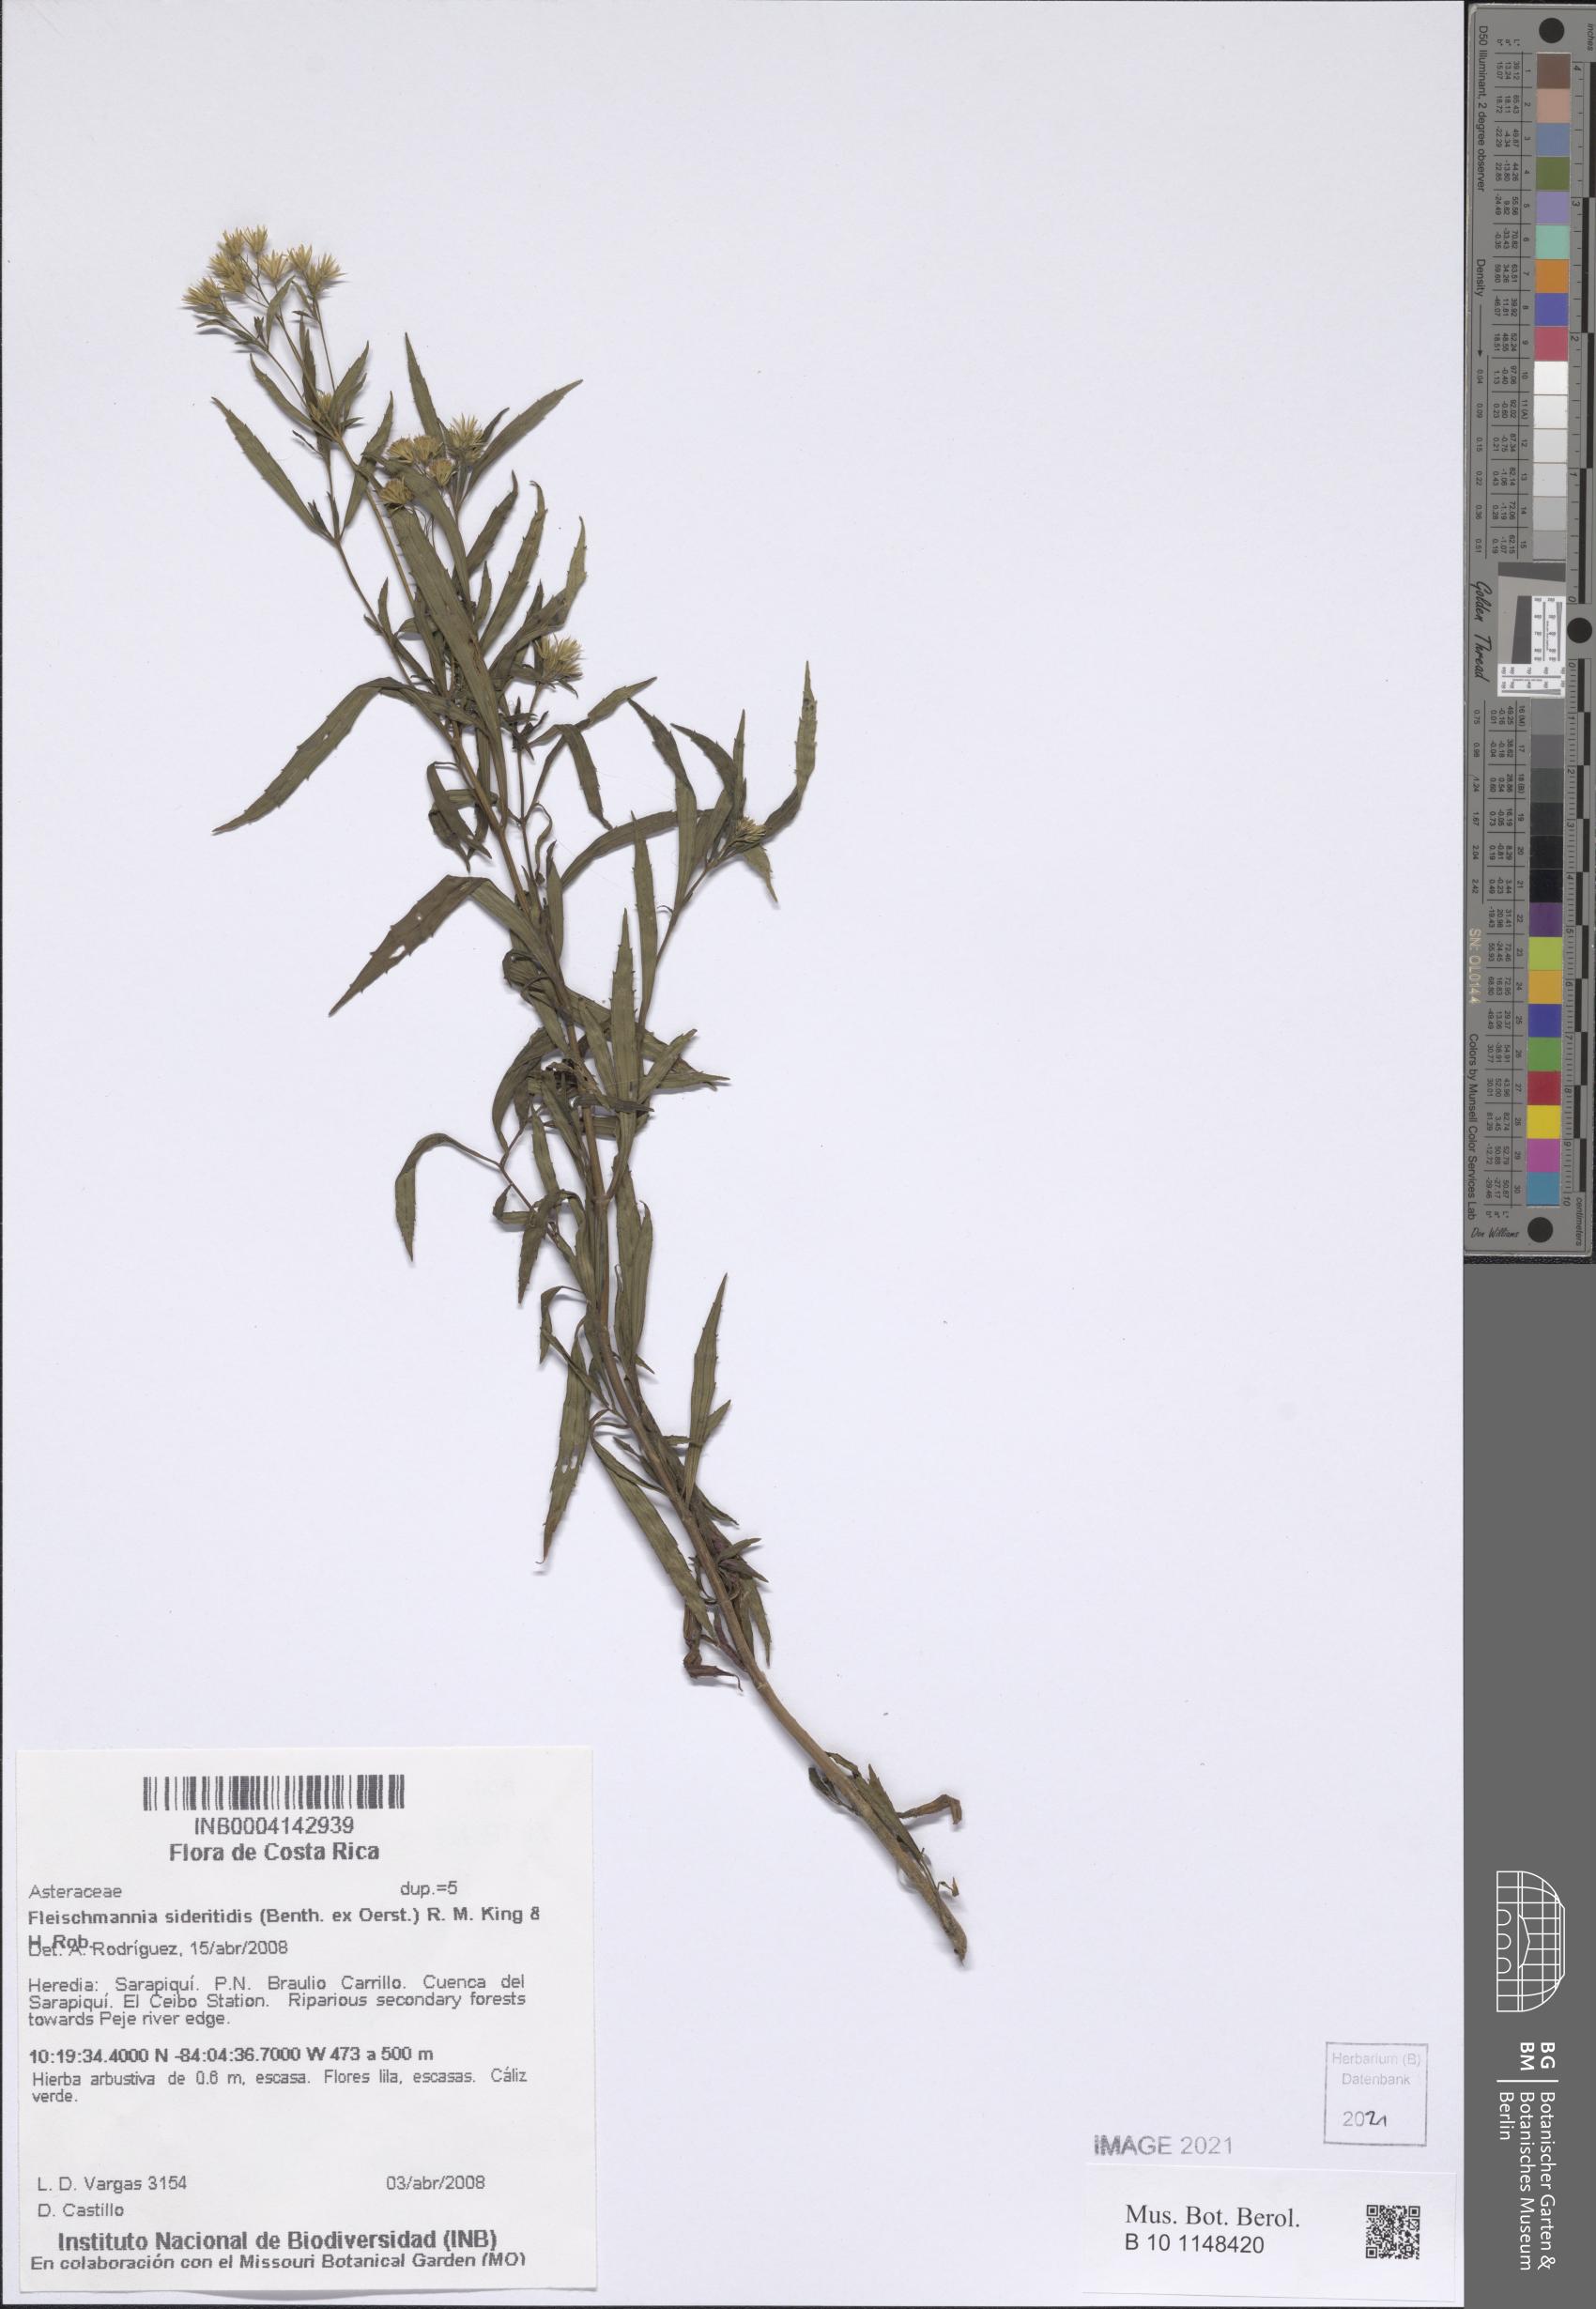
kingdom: Plantae
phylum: Tracheophyta
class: Magnoliopsida
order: Asterales
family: Asteraceae
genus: Fleischmannia
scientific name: Fleischmannia sideritidis
